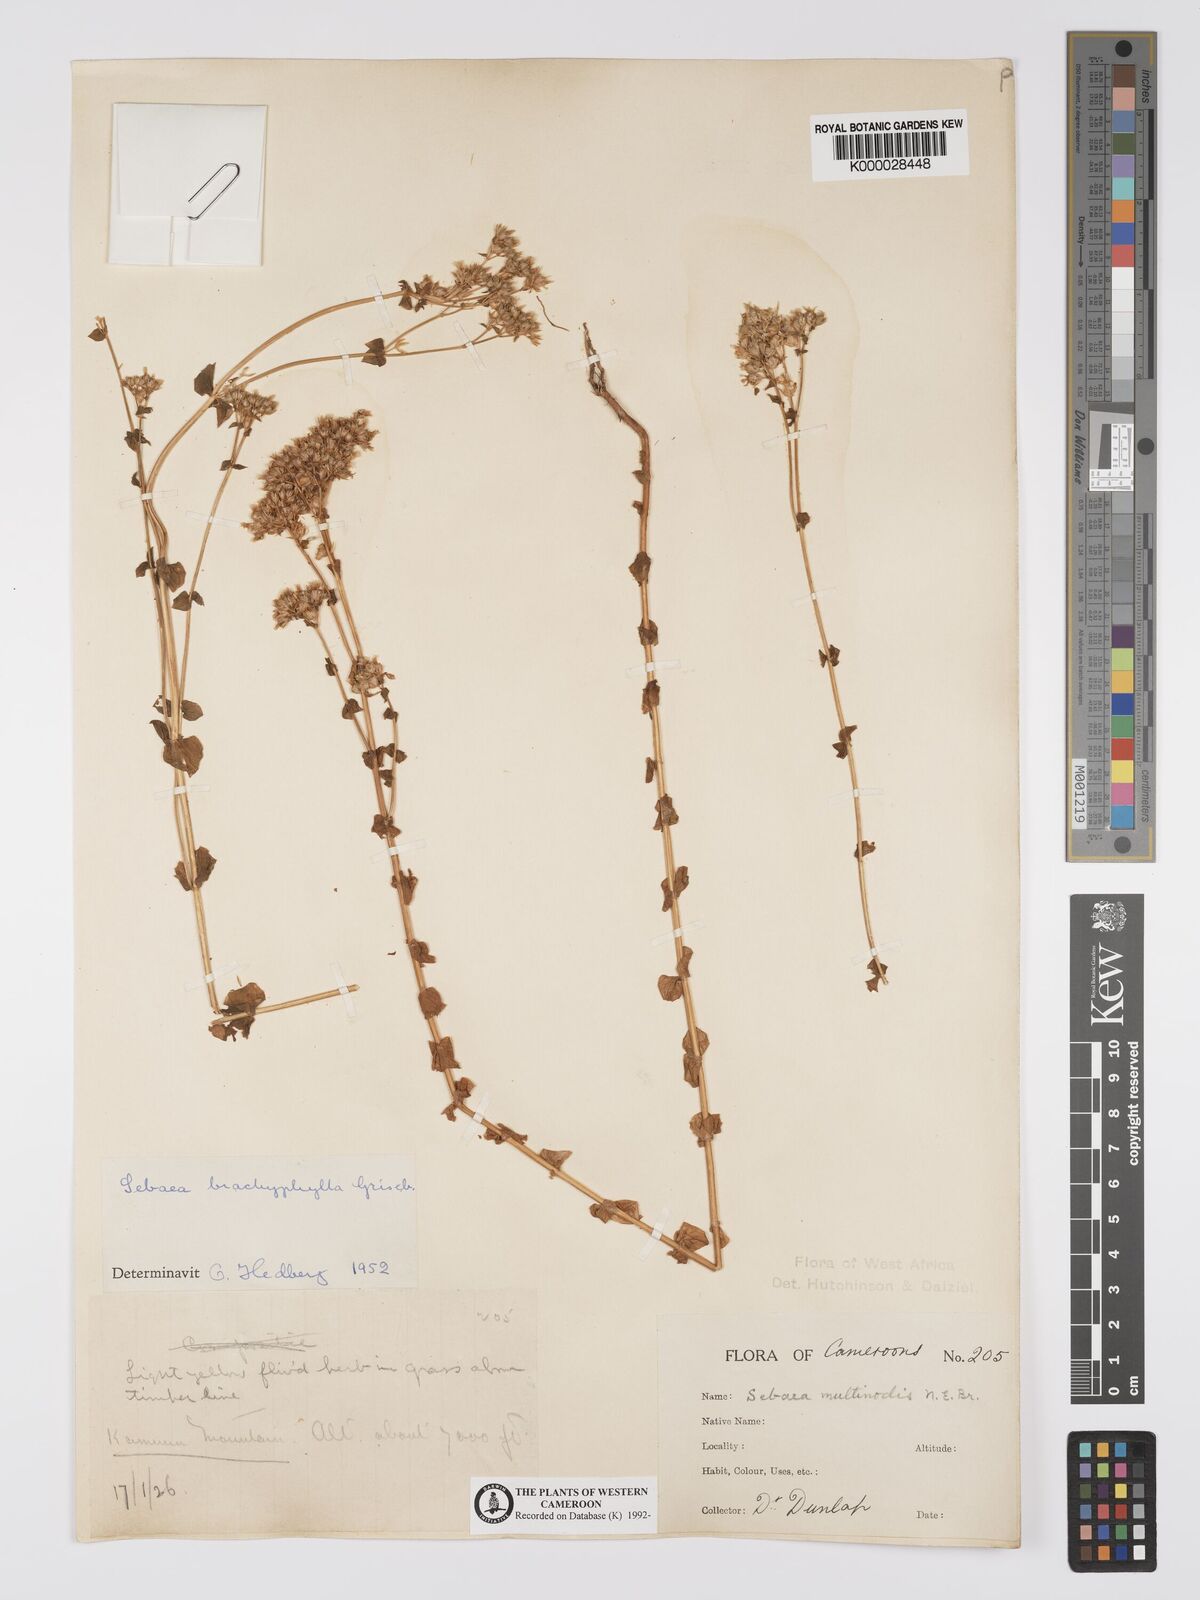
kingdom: Plantae
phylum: Tracheophyta
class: Magnoliopsida
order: Gentianales
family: Gentianaceae
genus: Sebaea
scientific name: Sebaea brachyphylla
